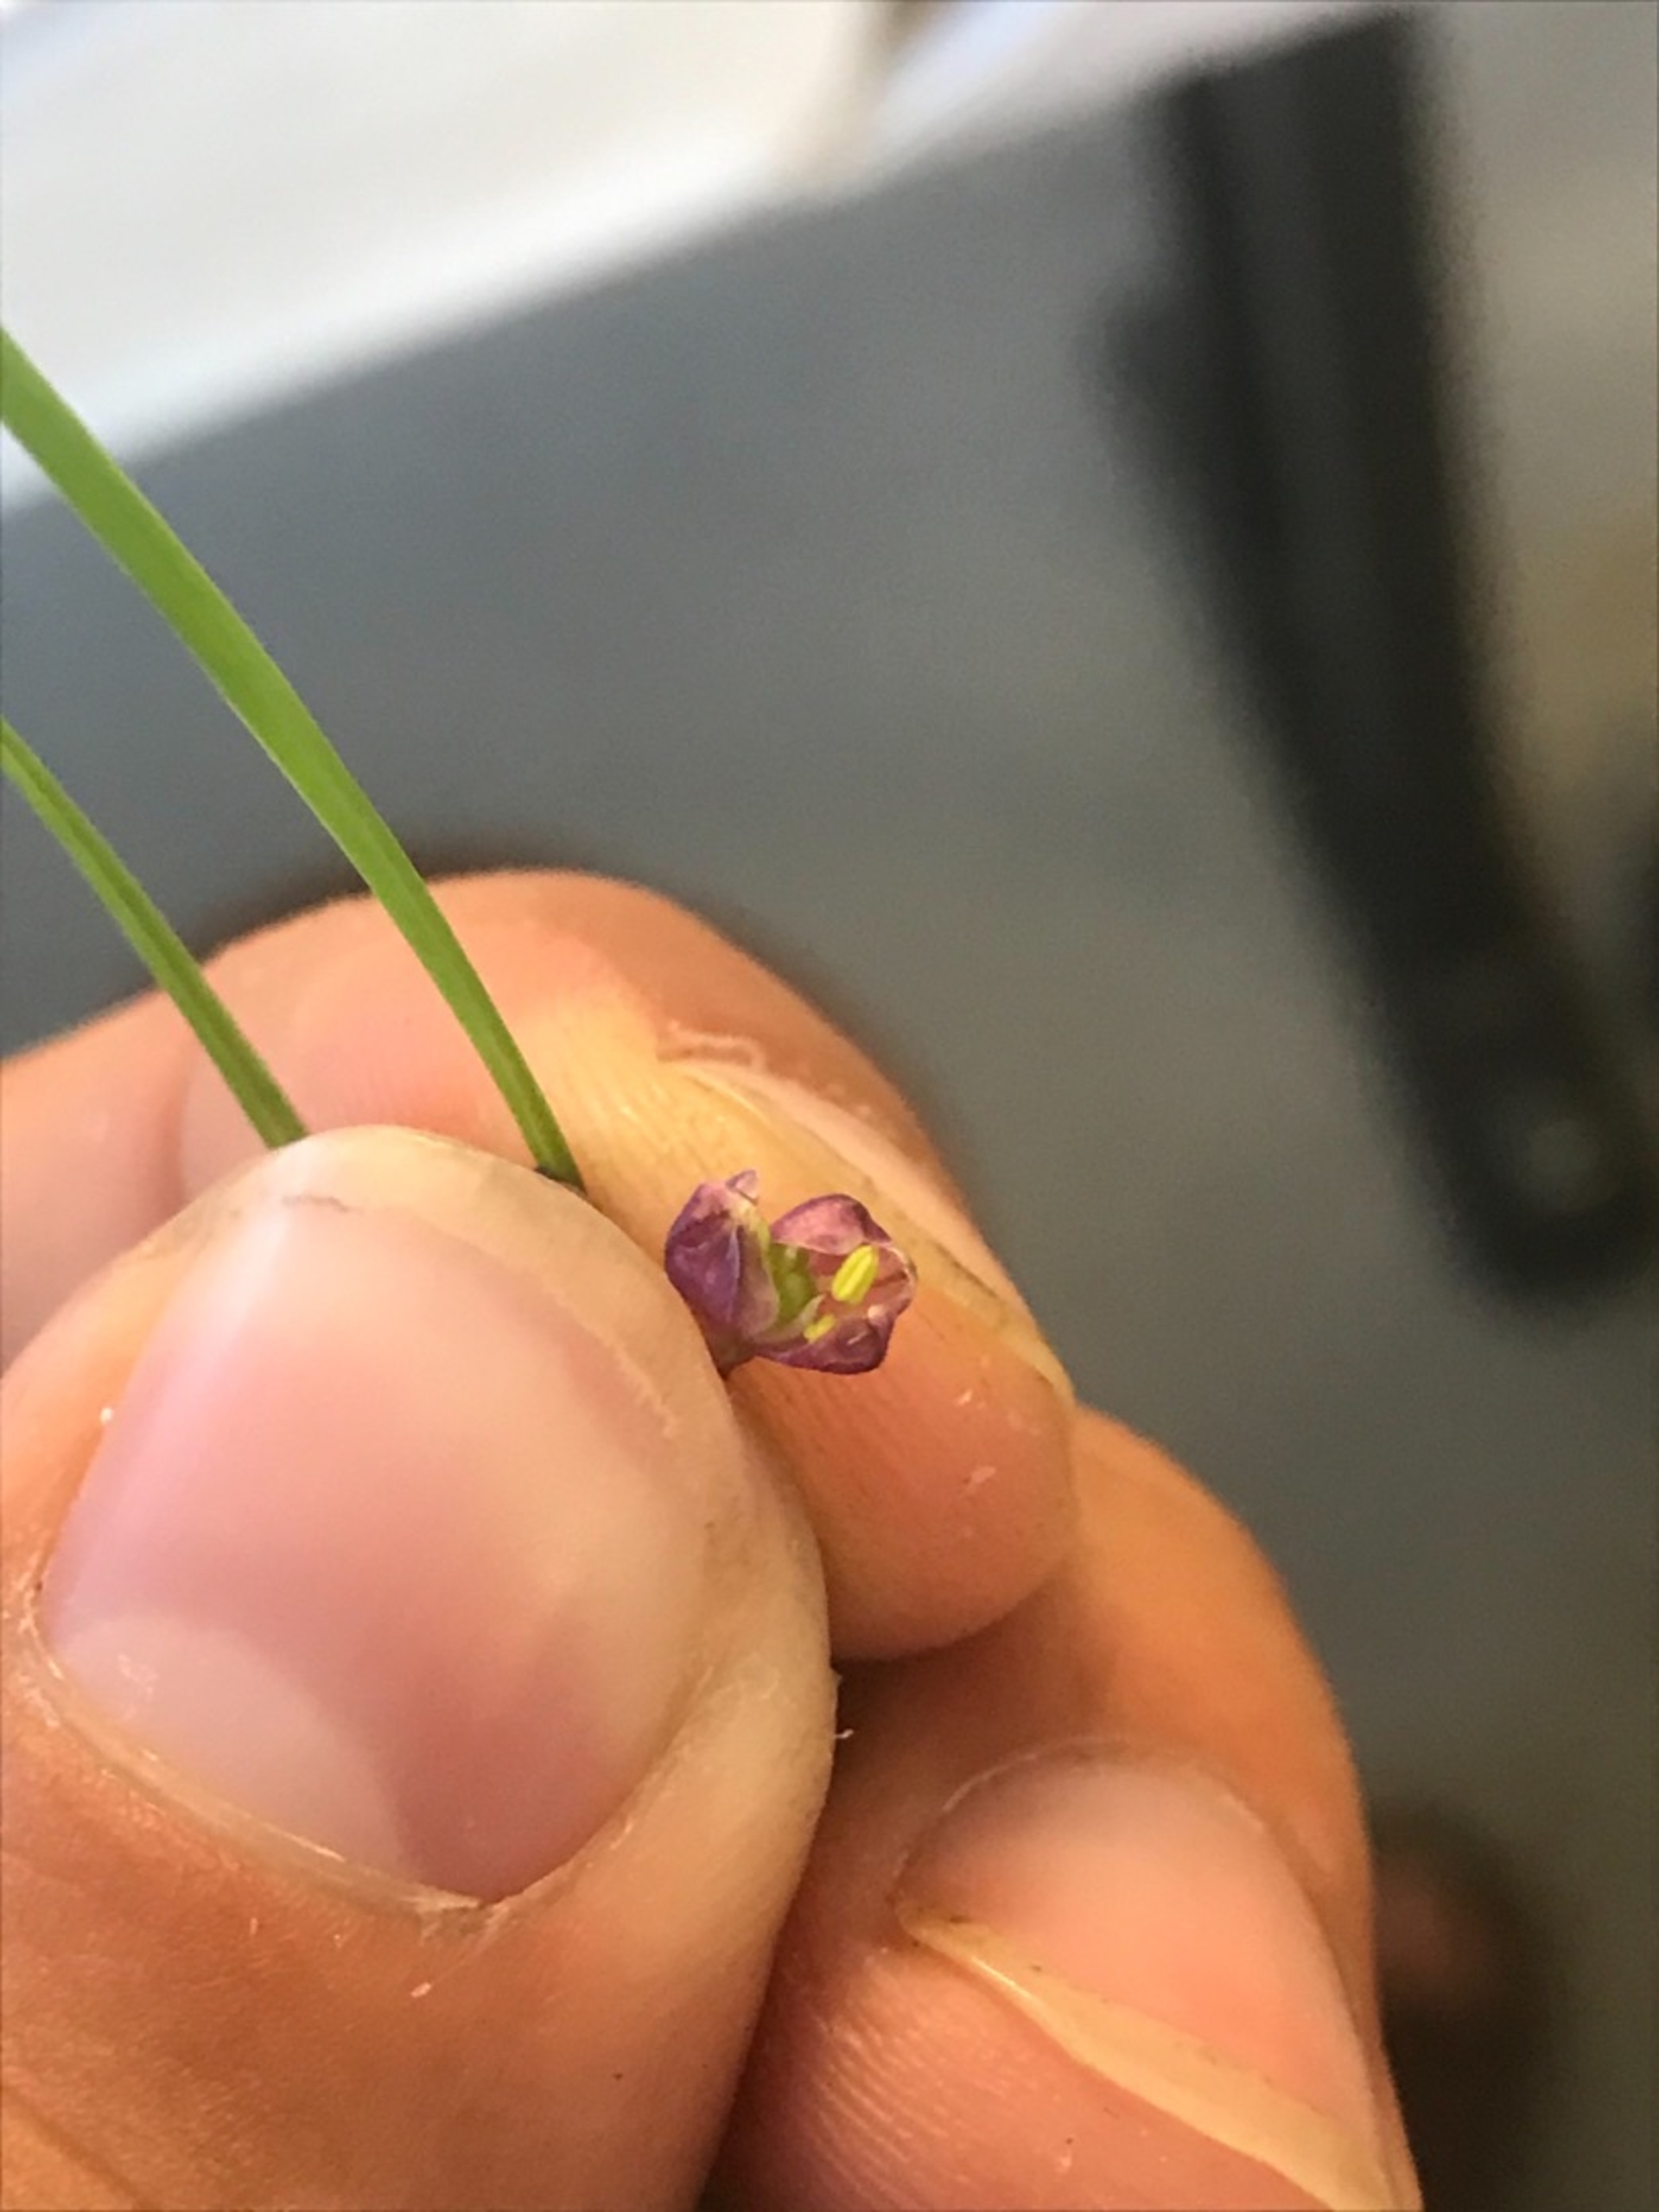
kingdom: Plantae
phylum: Tracheophyta
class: Liliopsida
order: Asparagales
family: Amaryllidaceae
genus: Allium
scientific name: Allium oleraceum
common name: Vild løg
